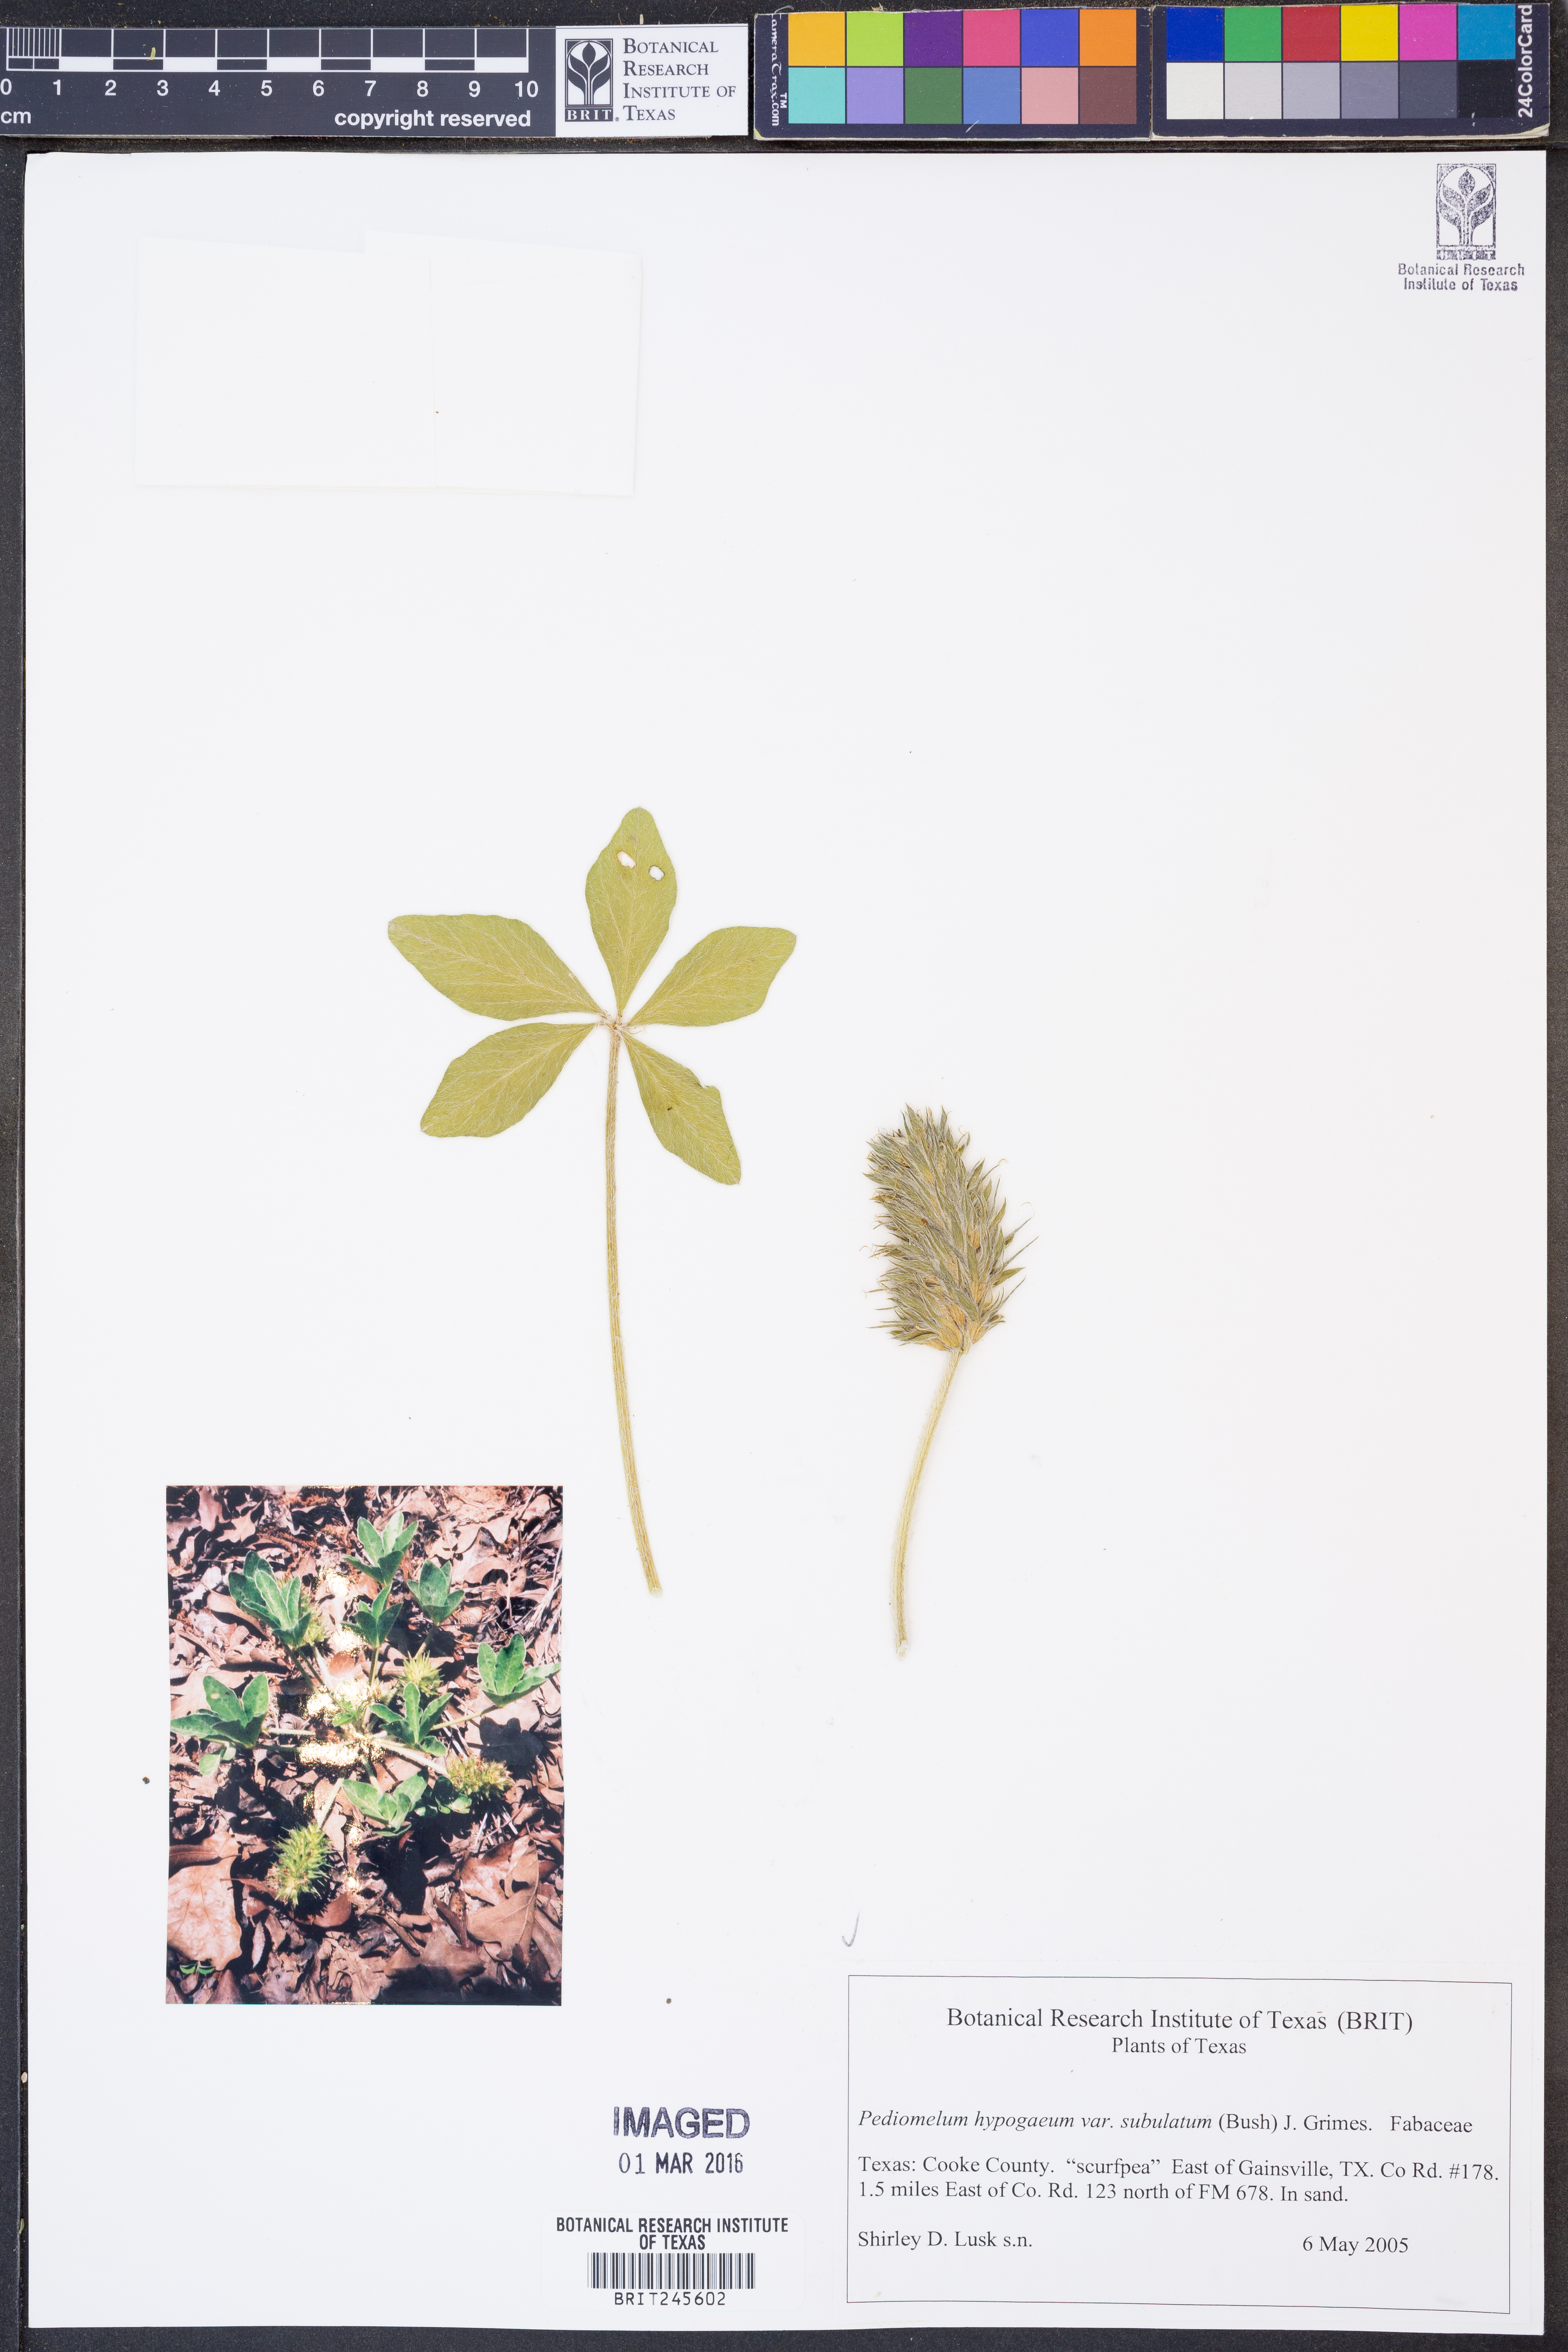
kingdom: Plantae
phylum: Tracheophyta
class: Magnoliopsida
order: Fabales
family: Fabaceae
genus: Pediomelum
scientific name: Pediomelum hypogaeum
